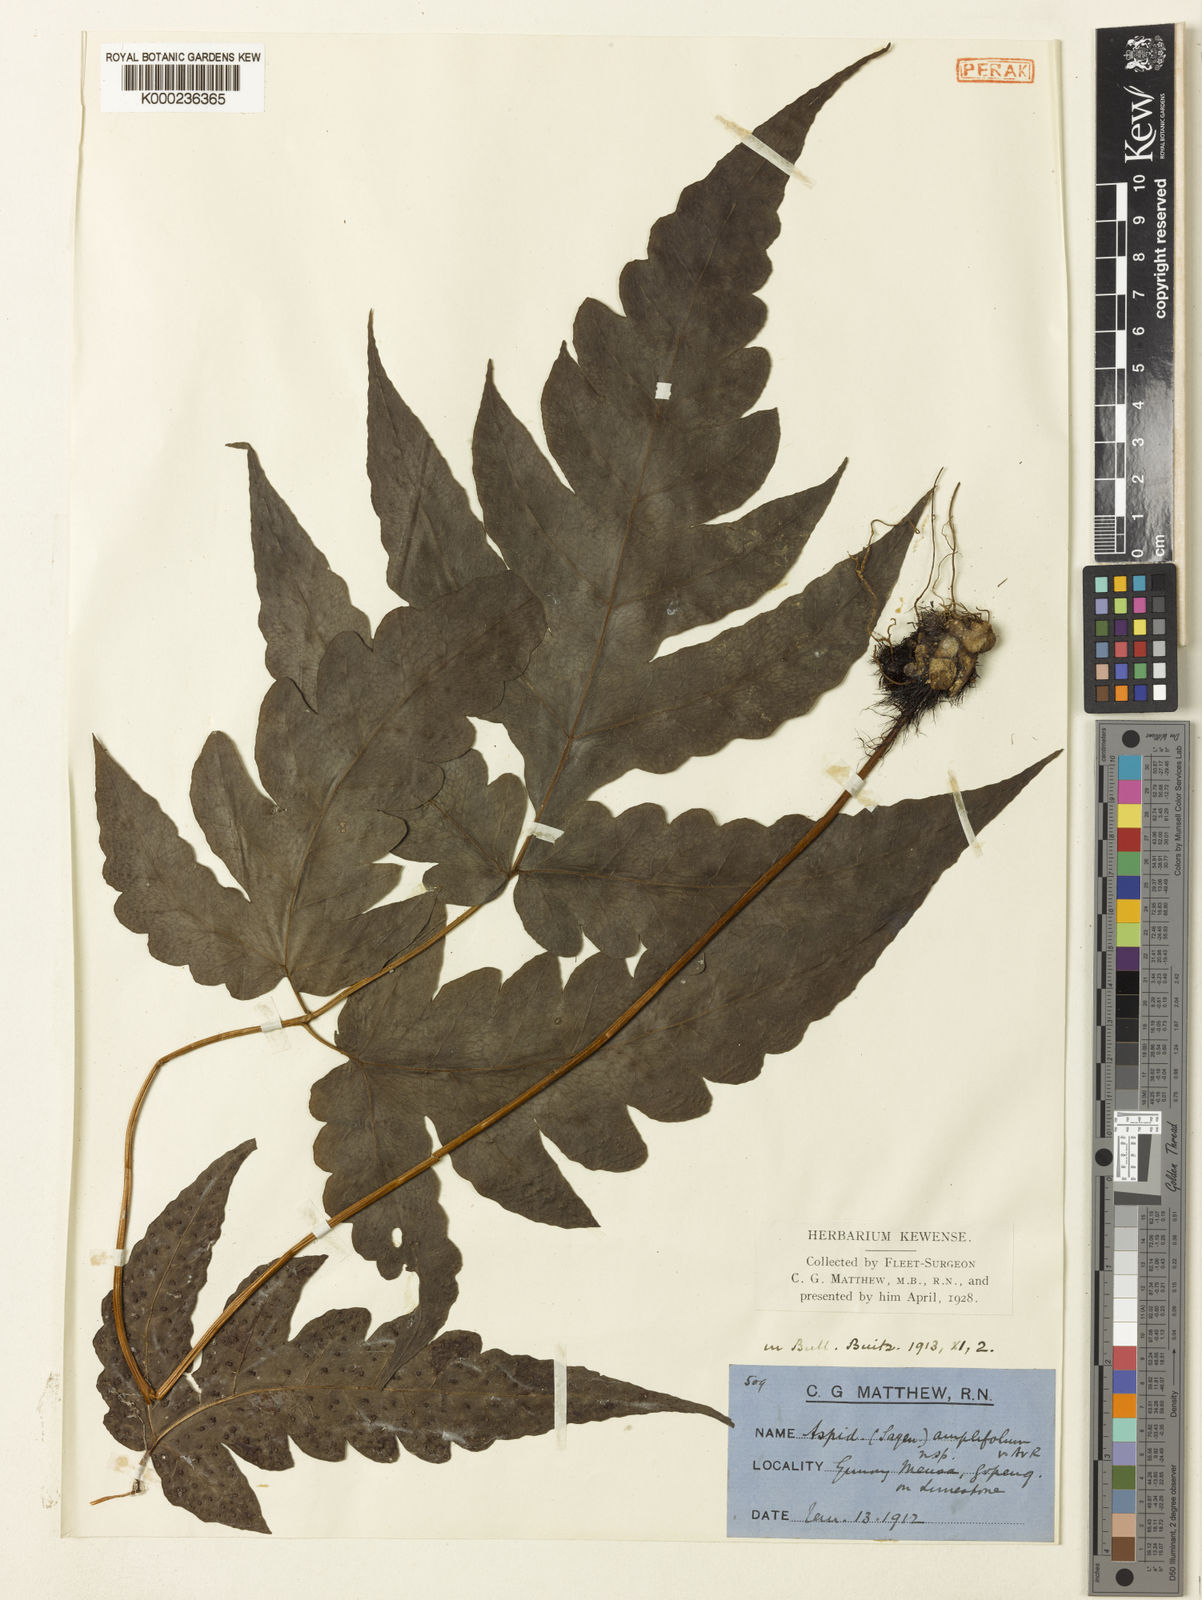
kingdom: Plantae
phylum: Tracheophyta
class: Polypodiopsida
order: Polypodiales
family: Tectariaceae
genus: Tectaria
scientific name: Tectaria keckii
